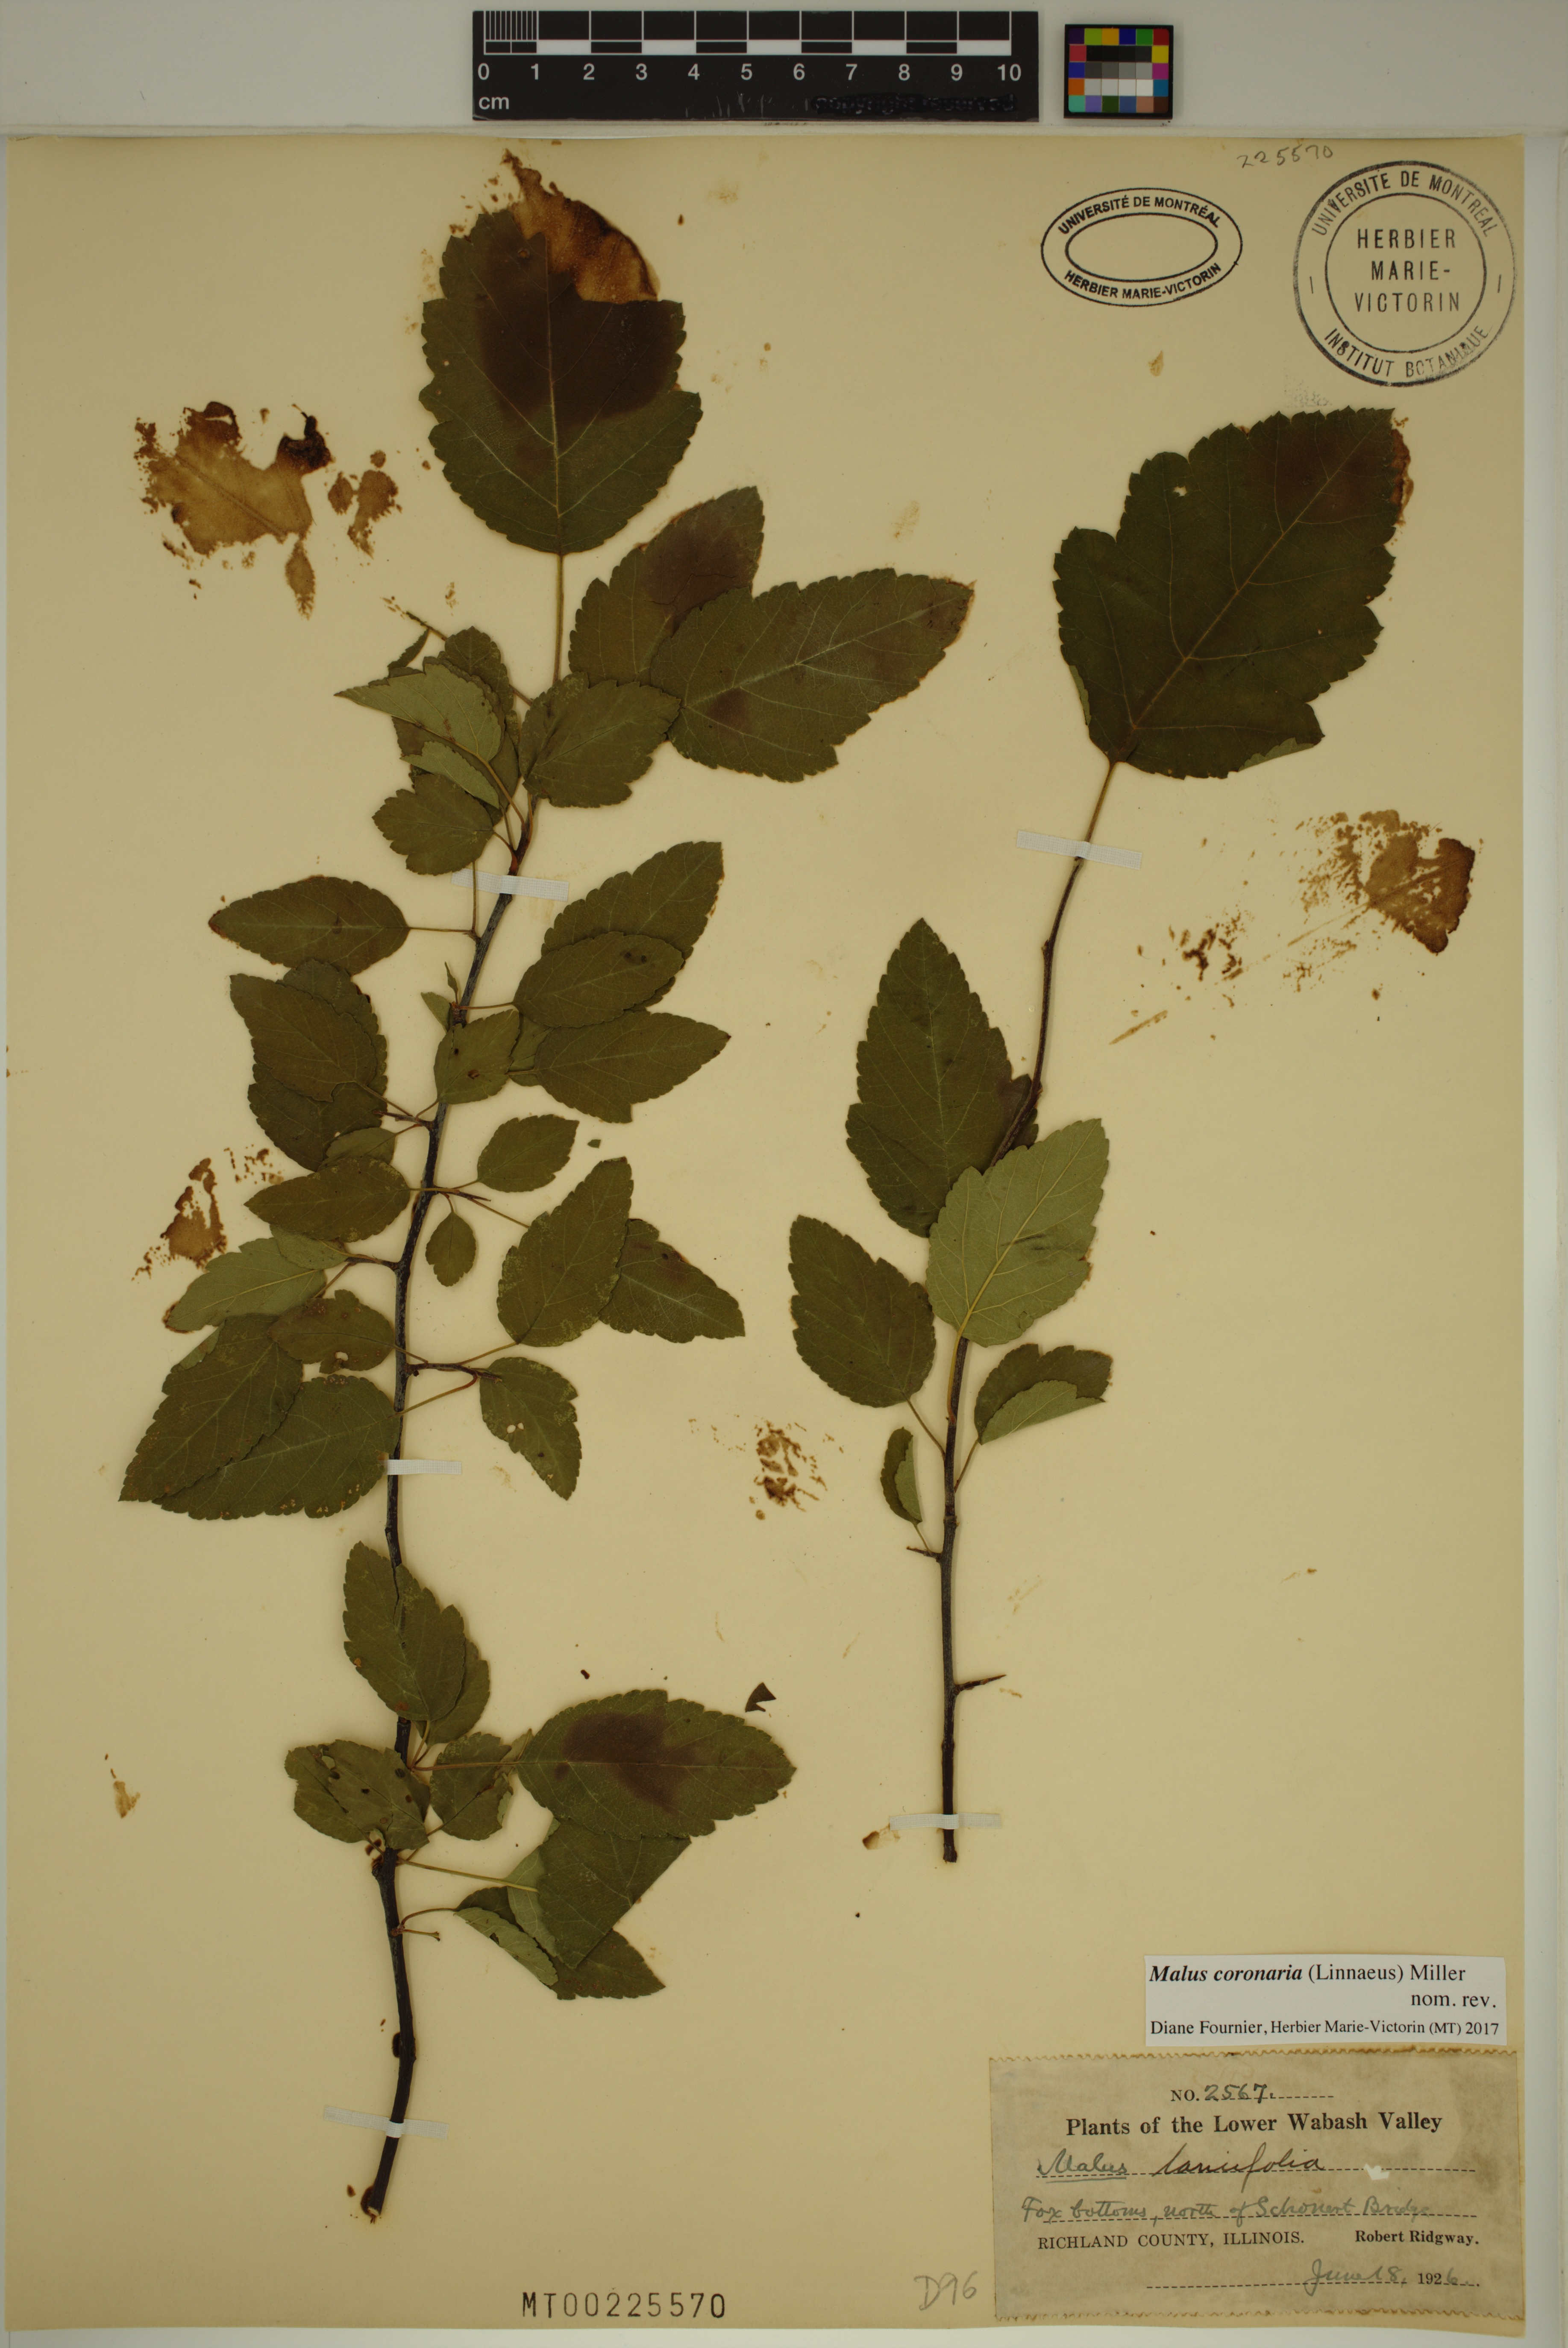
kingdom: Plantae
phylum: Tracheophyta
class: Magnoliopsida
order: Rosales
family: Rosaceae
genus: Malus
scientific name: Malus coronaria
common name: Sweet crab apple
